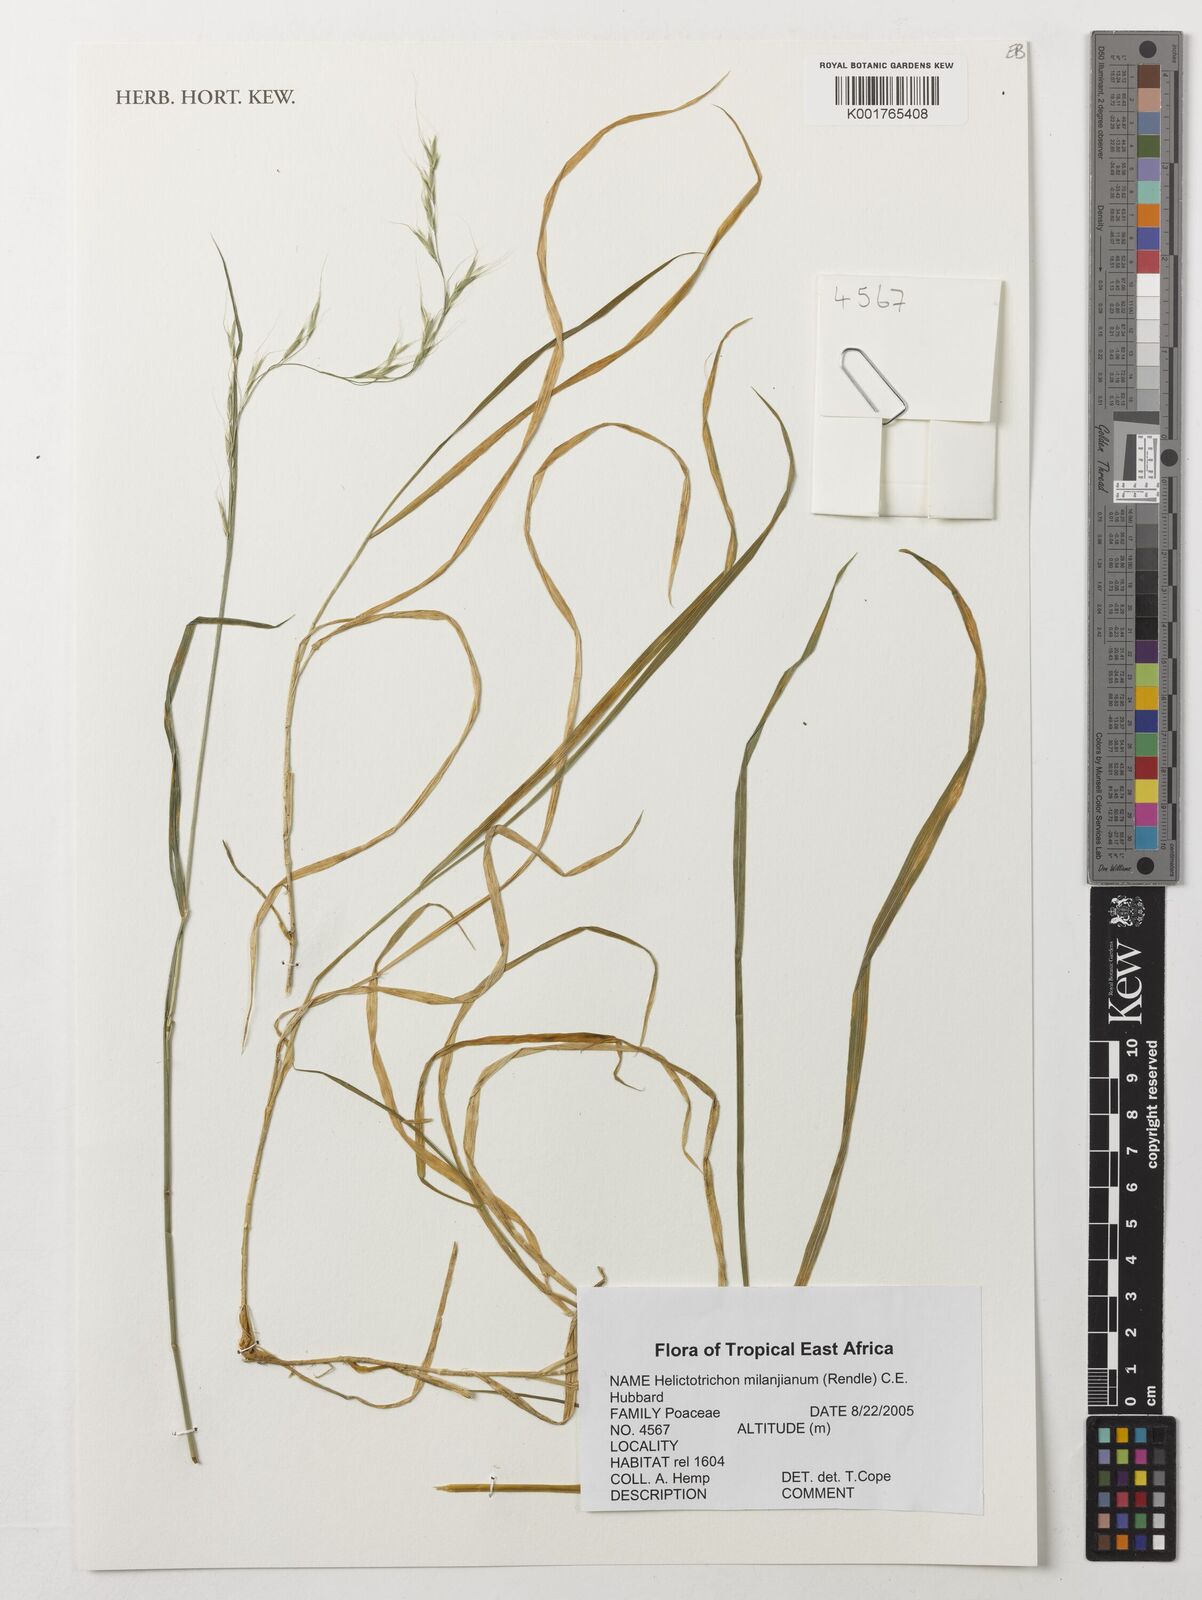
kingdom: Plantae
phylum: Tracheophyta
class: Liliopsida
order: Poales
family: Poaceae
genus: Trisetopsis
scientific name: Trisetopsis milanjiana
